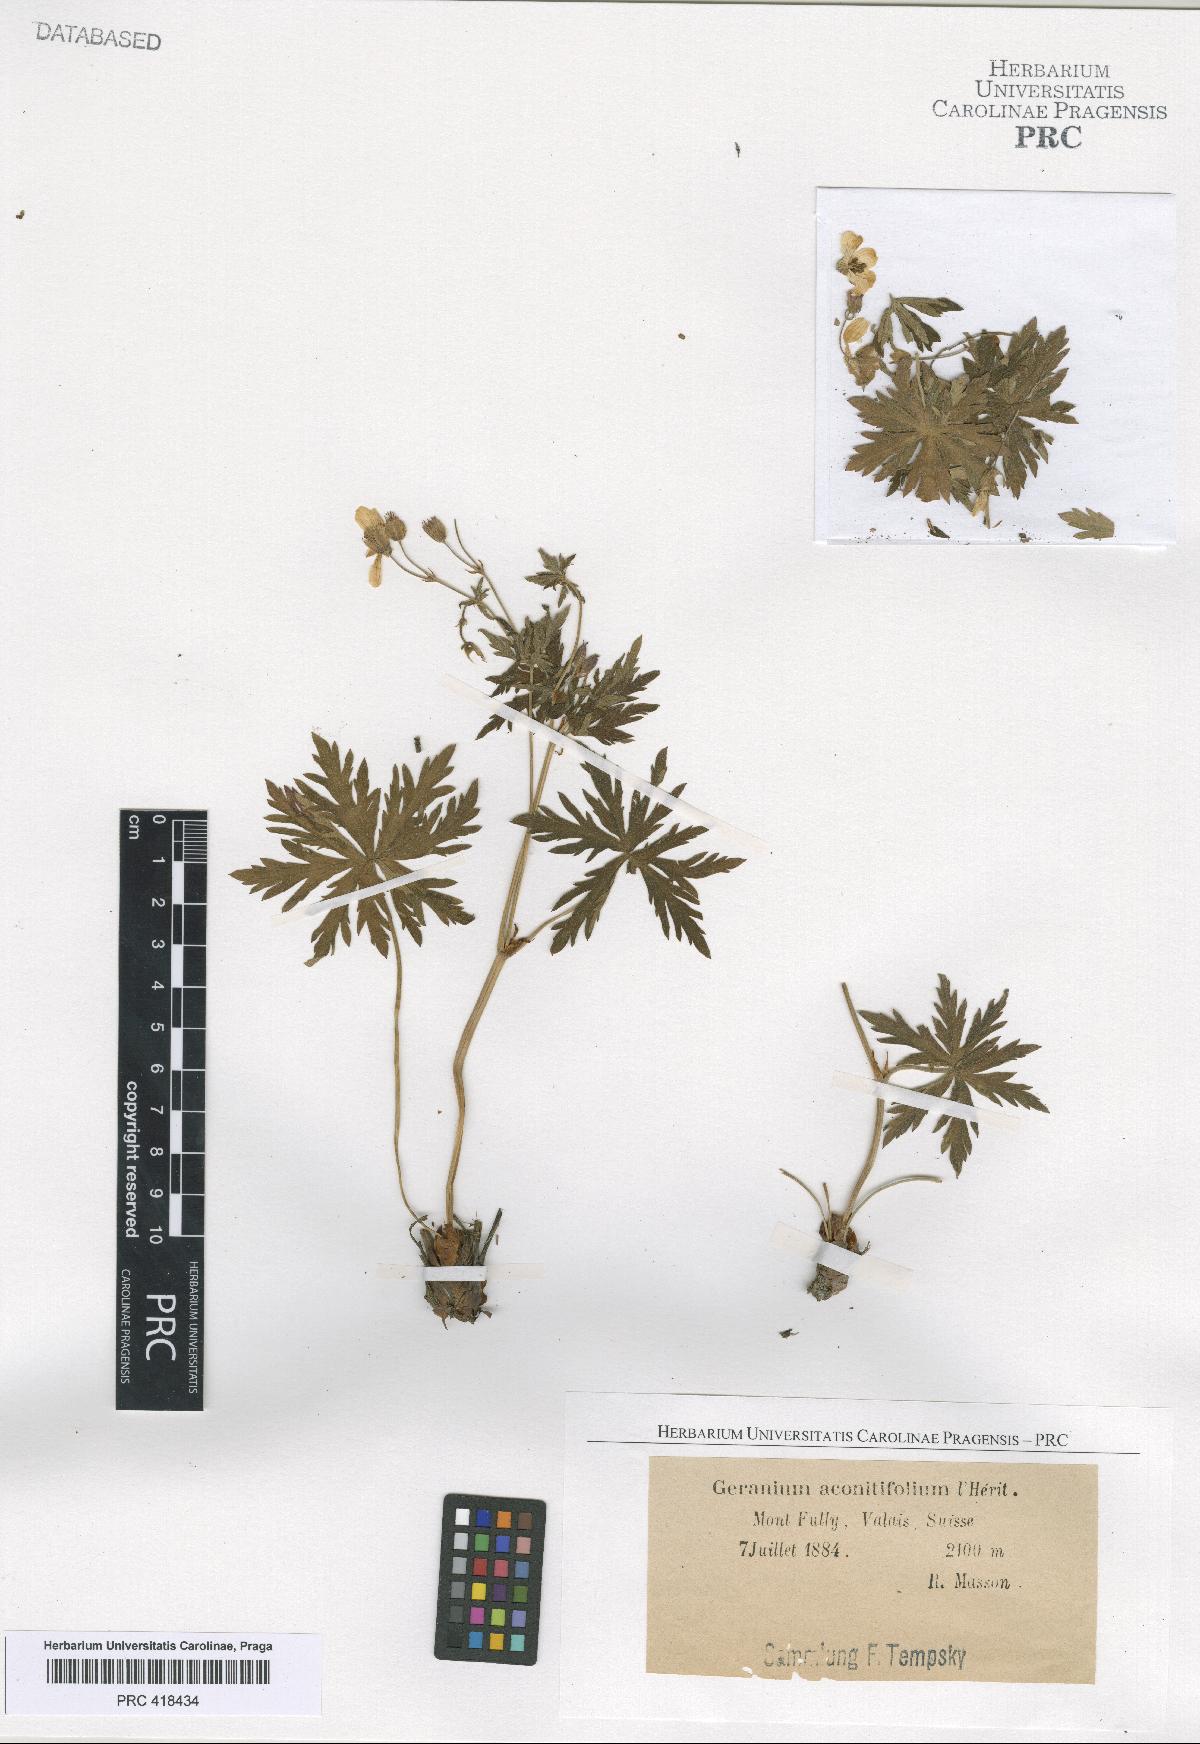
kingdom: Plantae
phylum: Tracheophyta
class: Magnoliopsida
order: Geraniales
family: Geraniaceae
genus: Geranium
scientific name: Geranium rivulare
